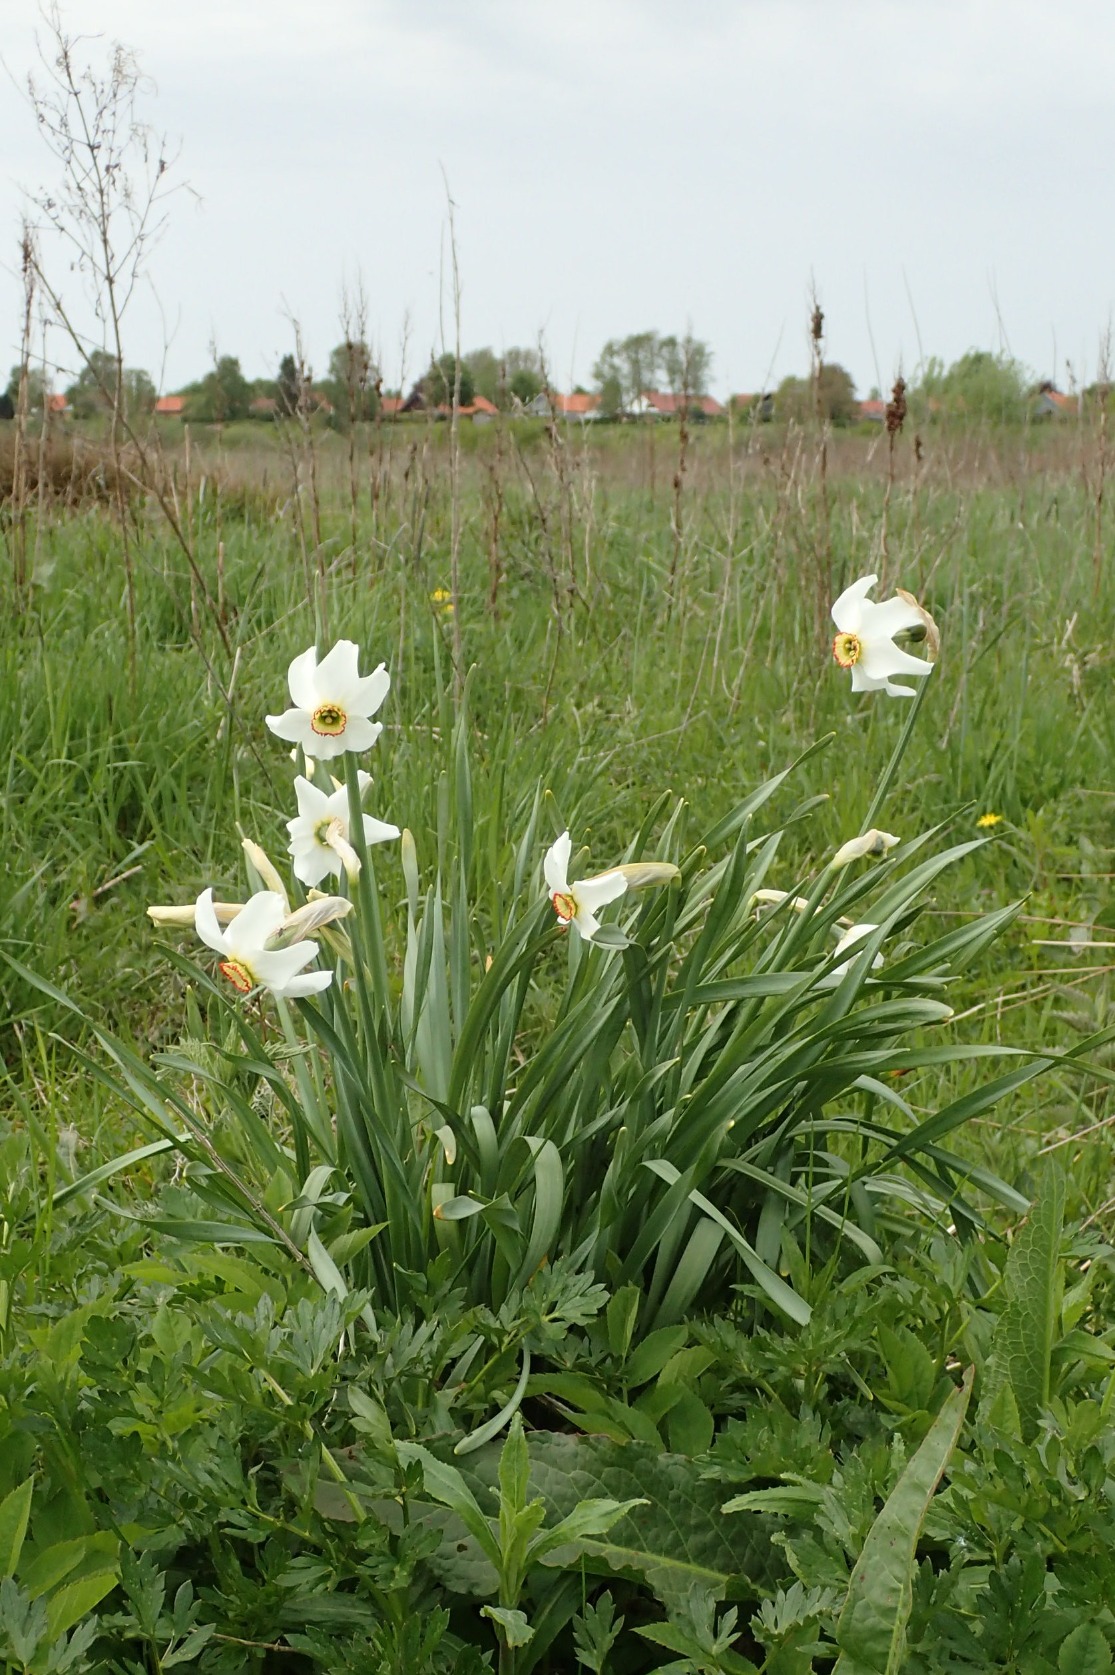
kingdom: Plantae
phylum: Tracheophyta
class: Liliopsida
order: Asparagales
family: Amaryllidaceae
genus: Narcissus
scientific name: Narcissus poeticus
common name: Pinselilje
